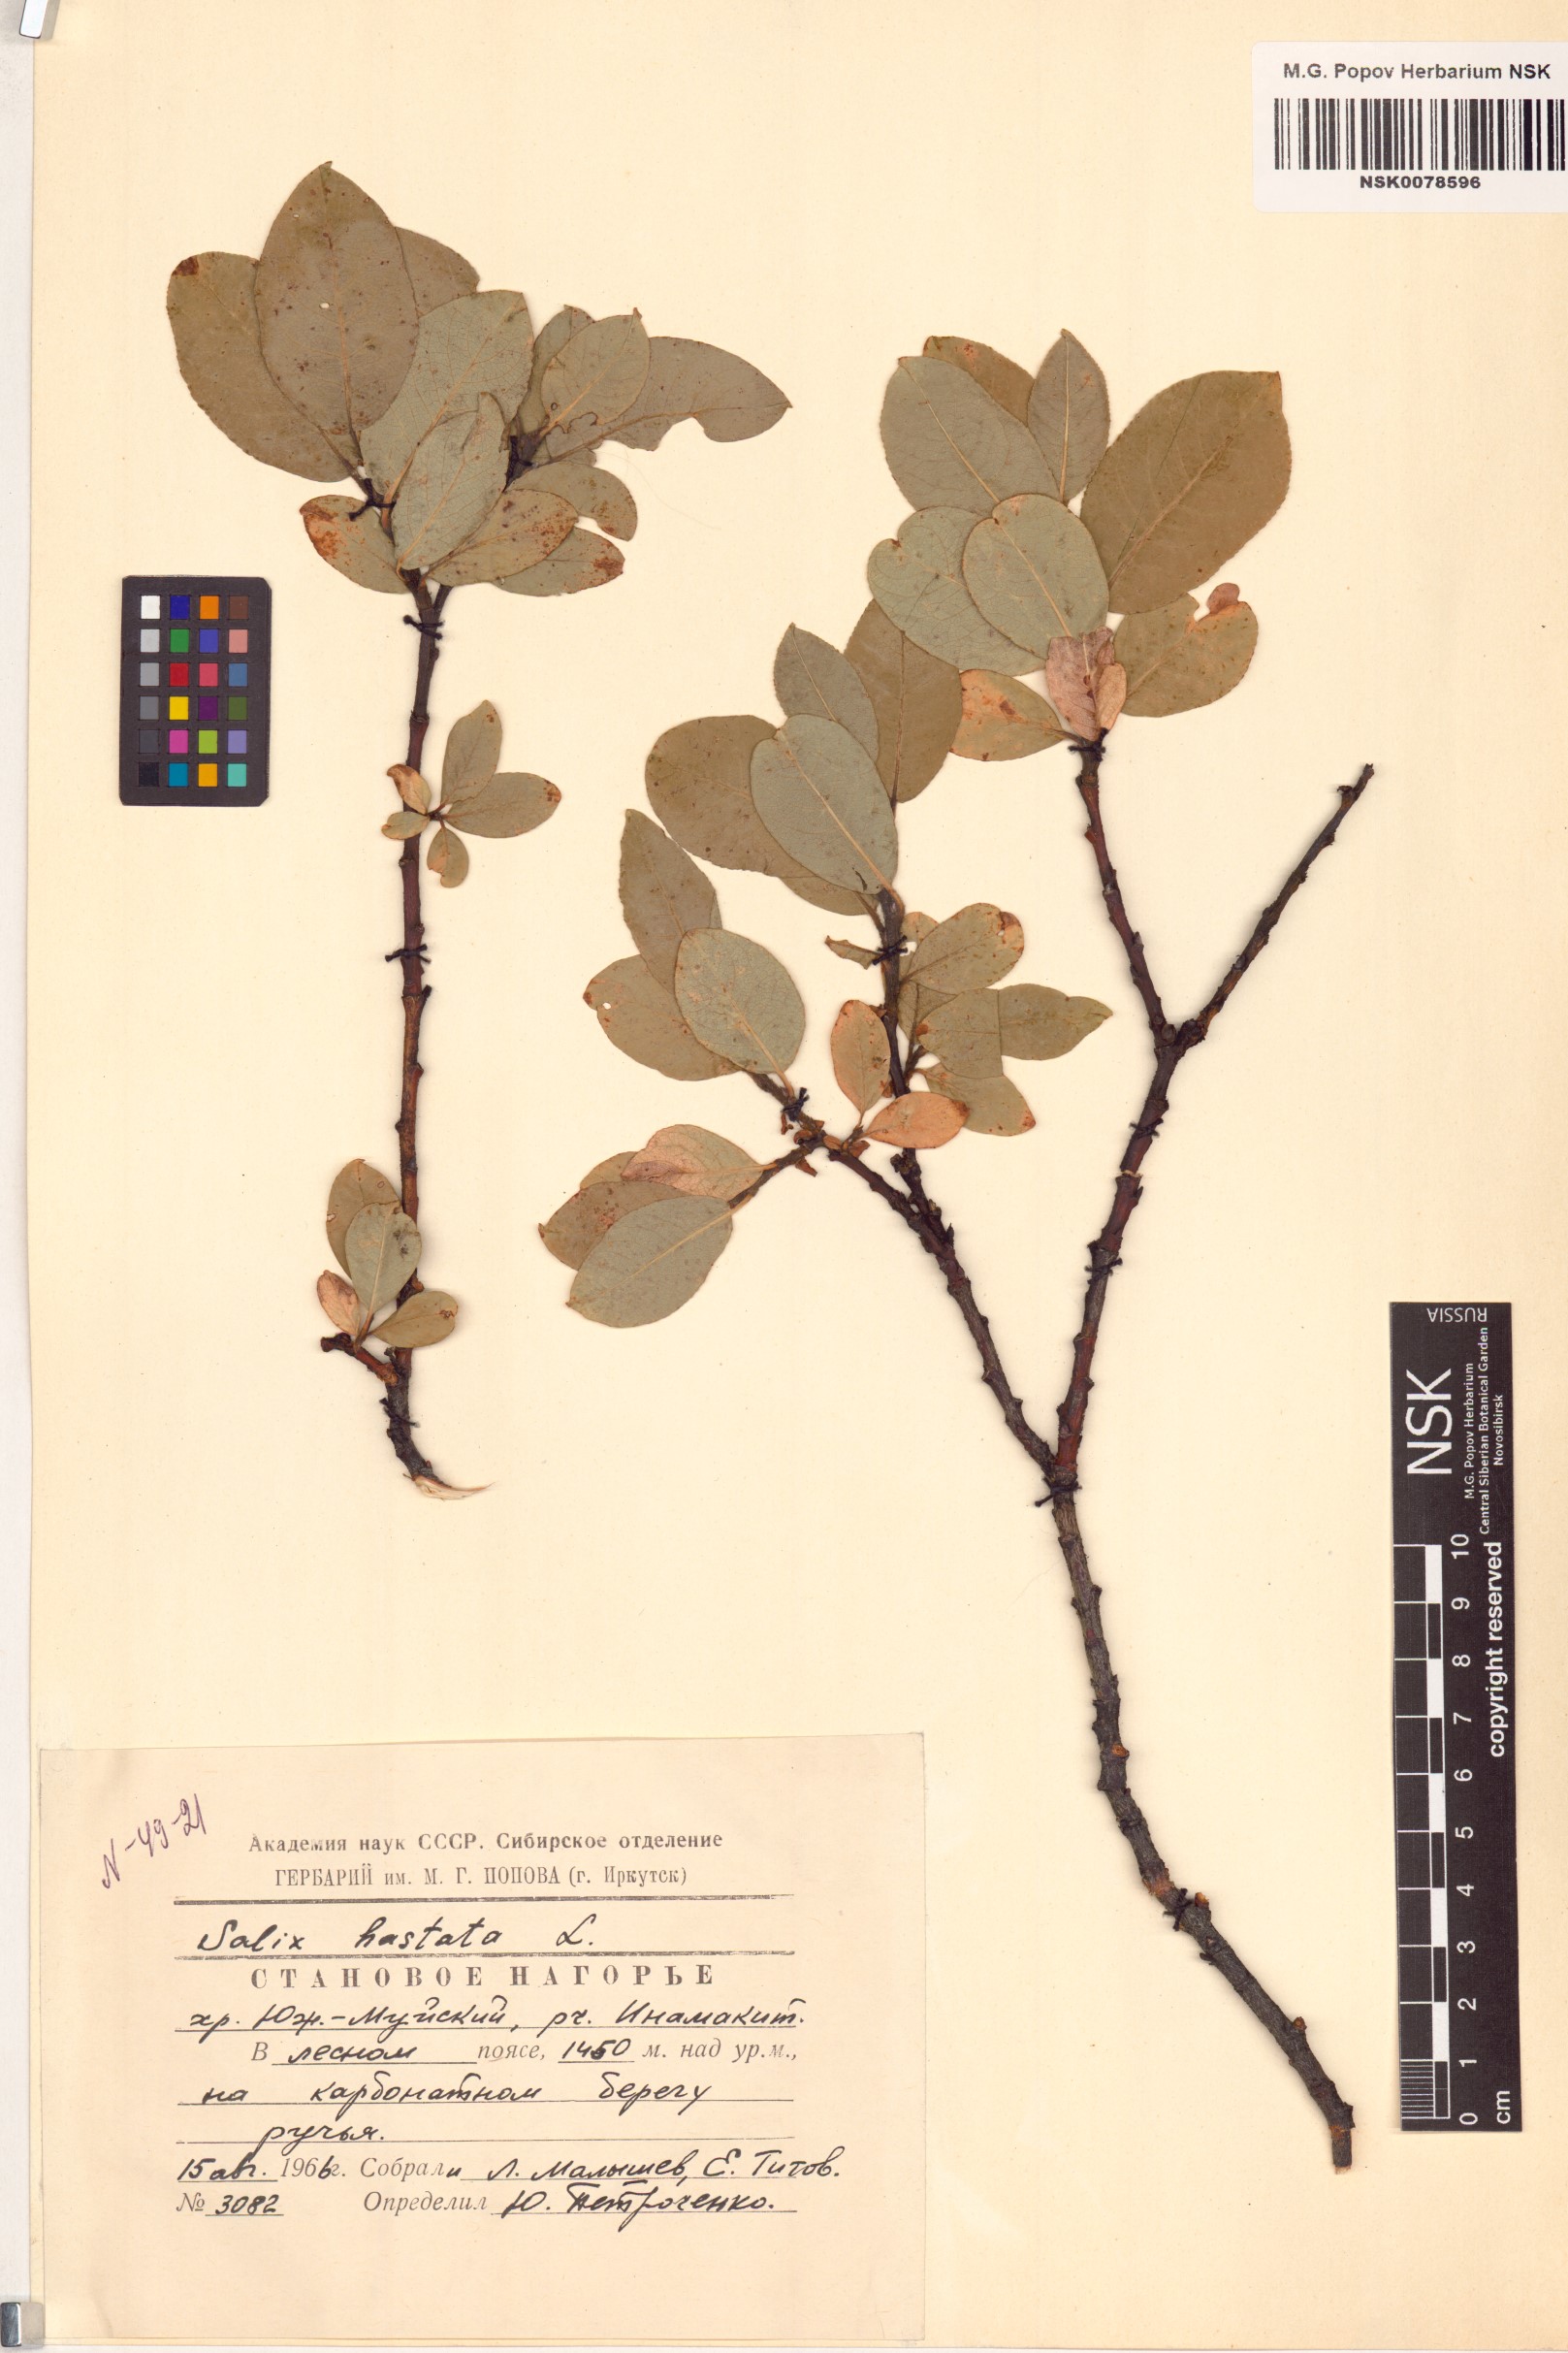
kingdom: Plantae
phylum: Tracheophyta
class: Magnoliopsida
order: Malpighiales
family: Salicaceae
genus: Salix
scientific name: Salix hastata
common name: Halberd willow
